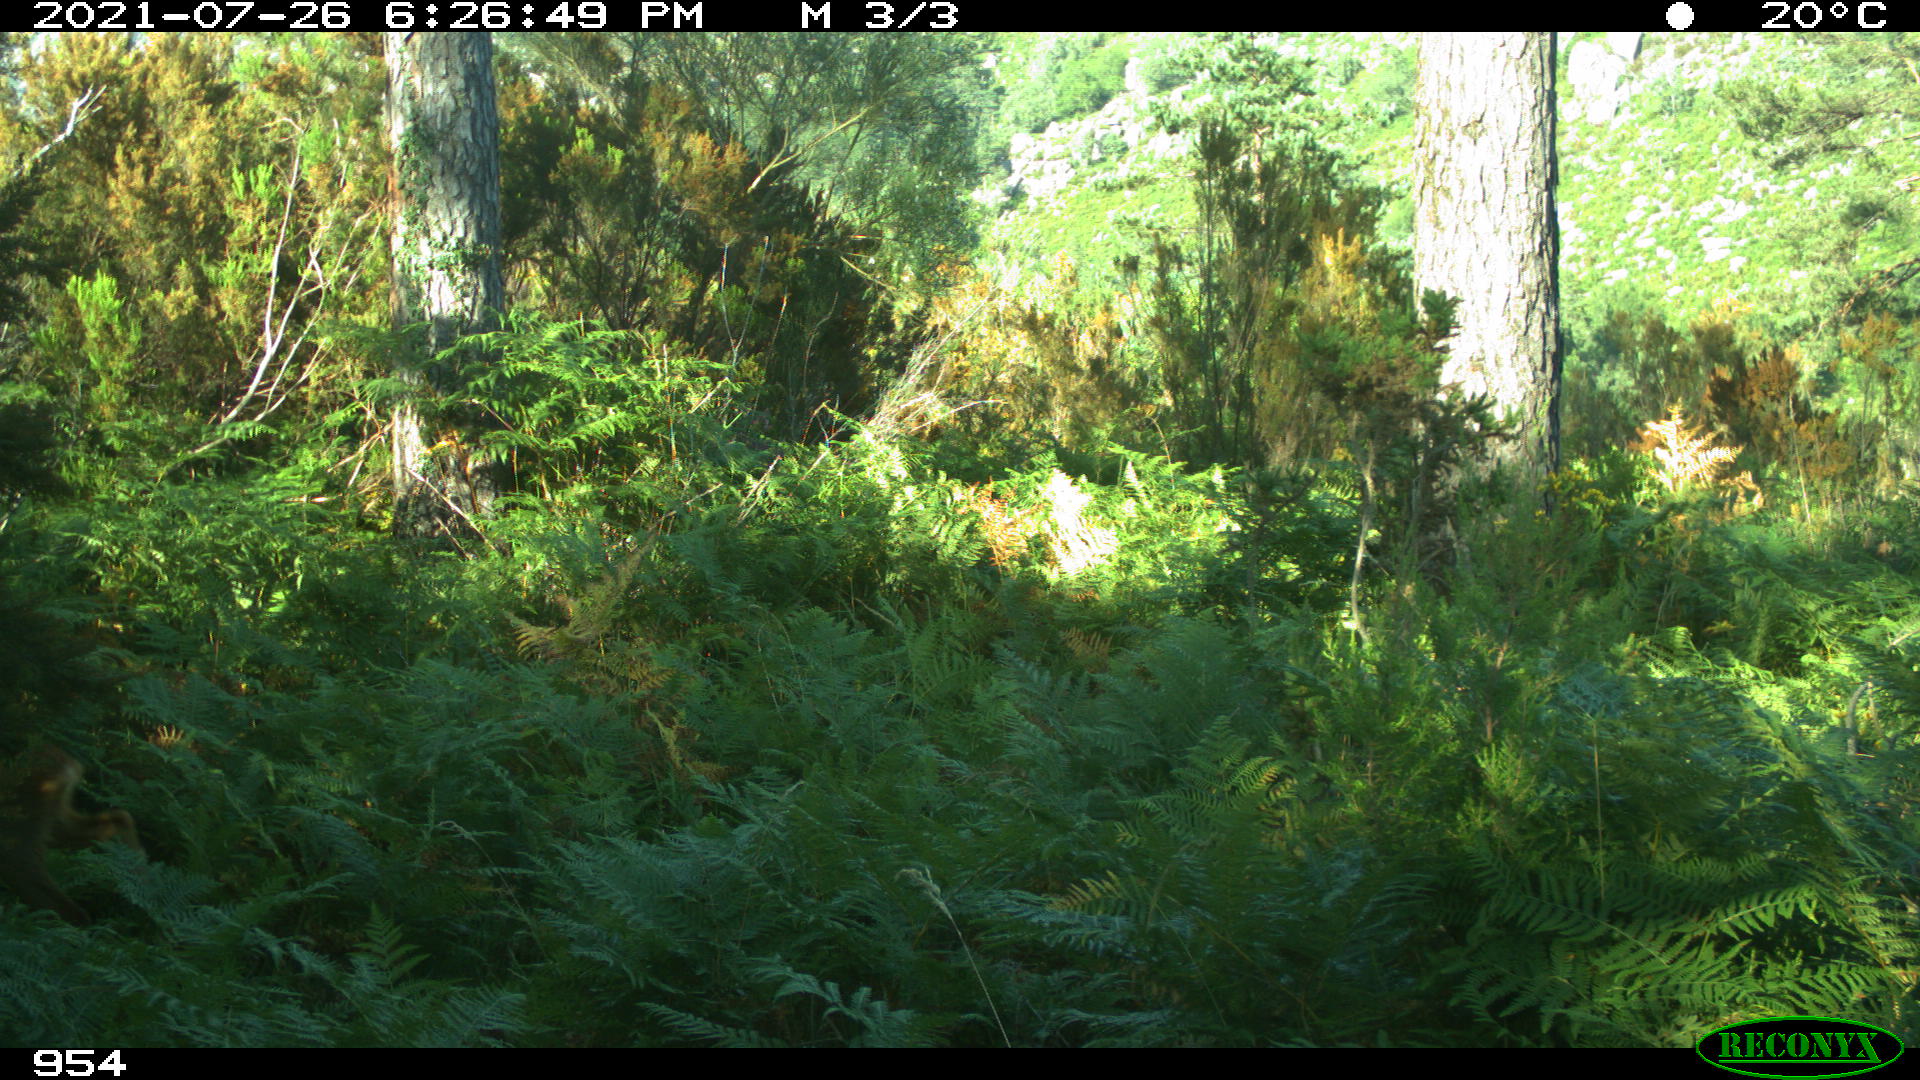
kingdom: Animalia
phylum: Chordata
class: Mammalia
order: Artiodactyla
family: Cervidae
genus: Capreolus
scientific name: Capreolus capreolus
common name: Western roe deer
